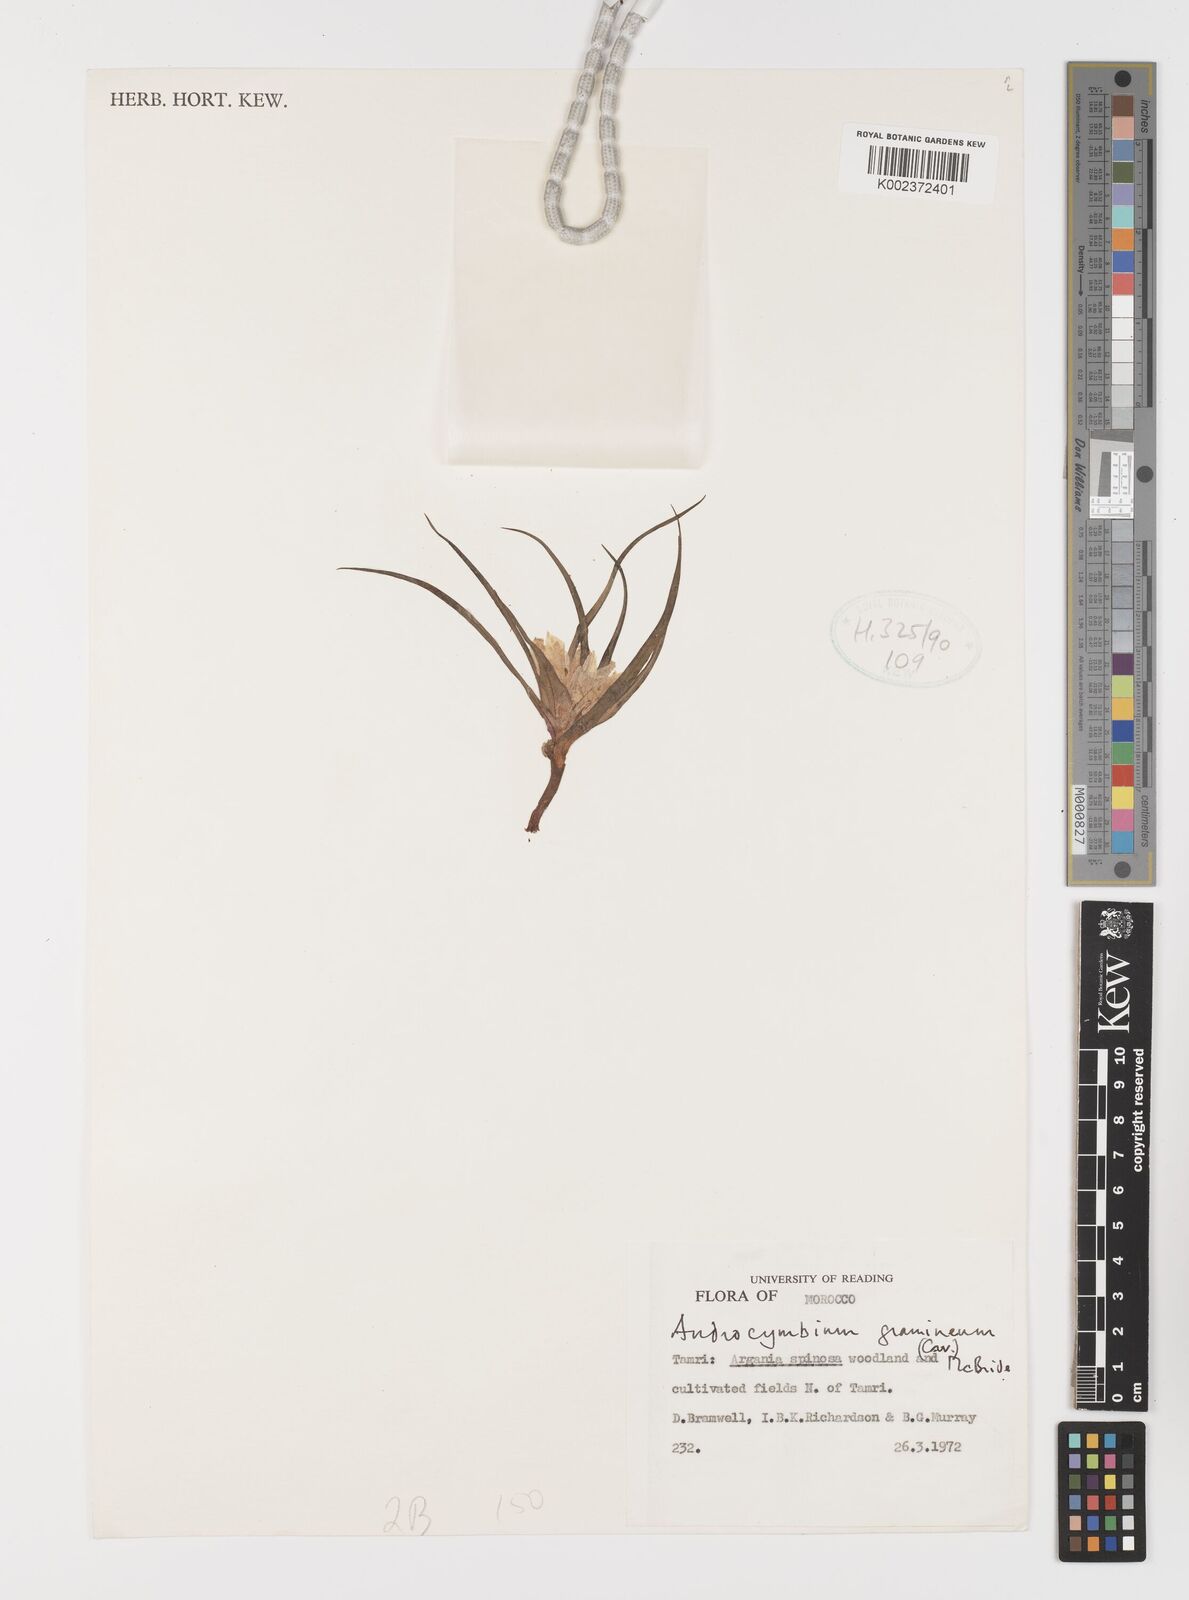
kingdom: Plantae
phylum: Tracheophyta
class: Liliopsida
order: Liliales
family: Colchicaceae
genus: Colchicum
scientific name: Colchicum gramineum
